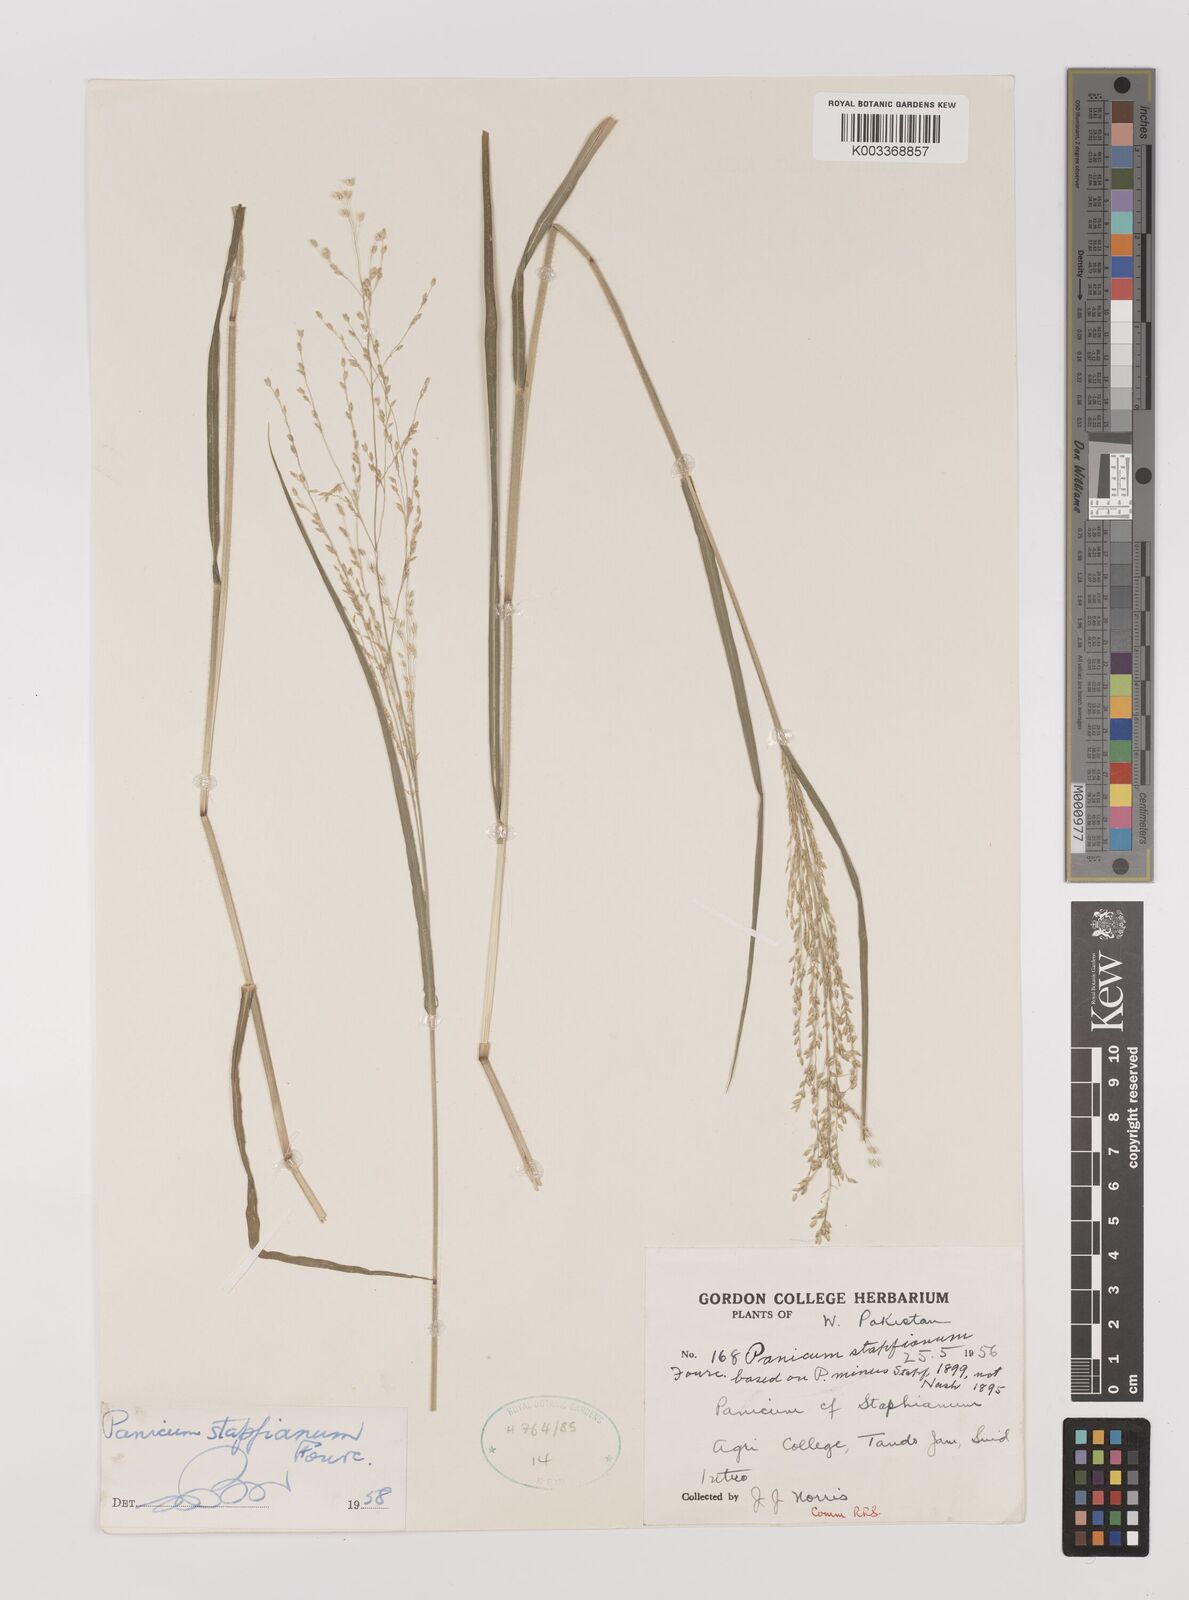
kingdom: Plantae
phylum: Tracheophyta
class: Liliopsida
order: Poales
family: Poaceae
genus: Panicum
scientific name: Panicum stapfianum
